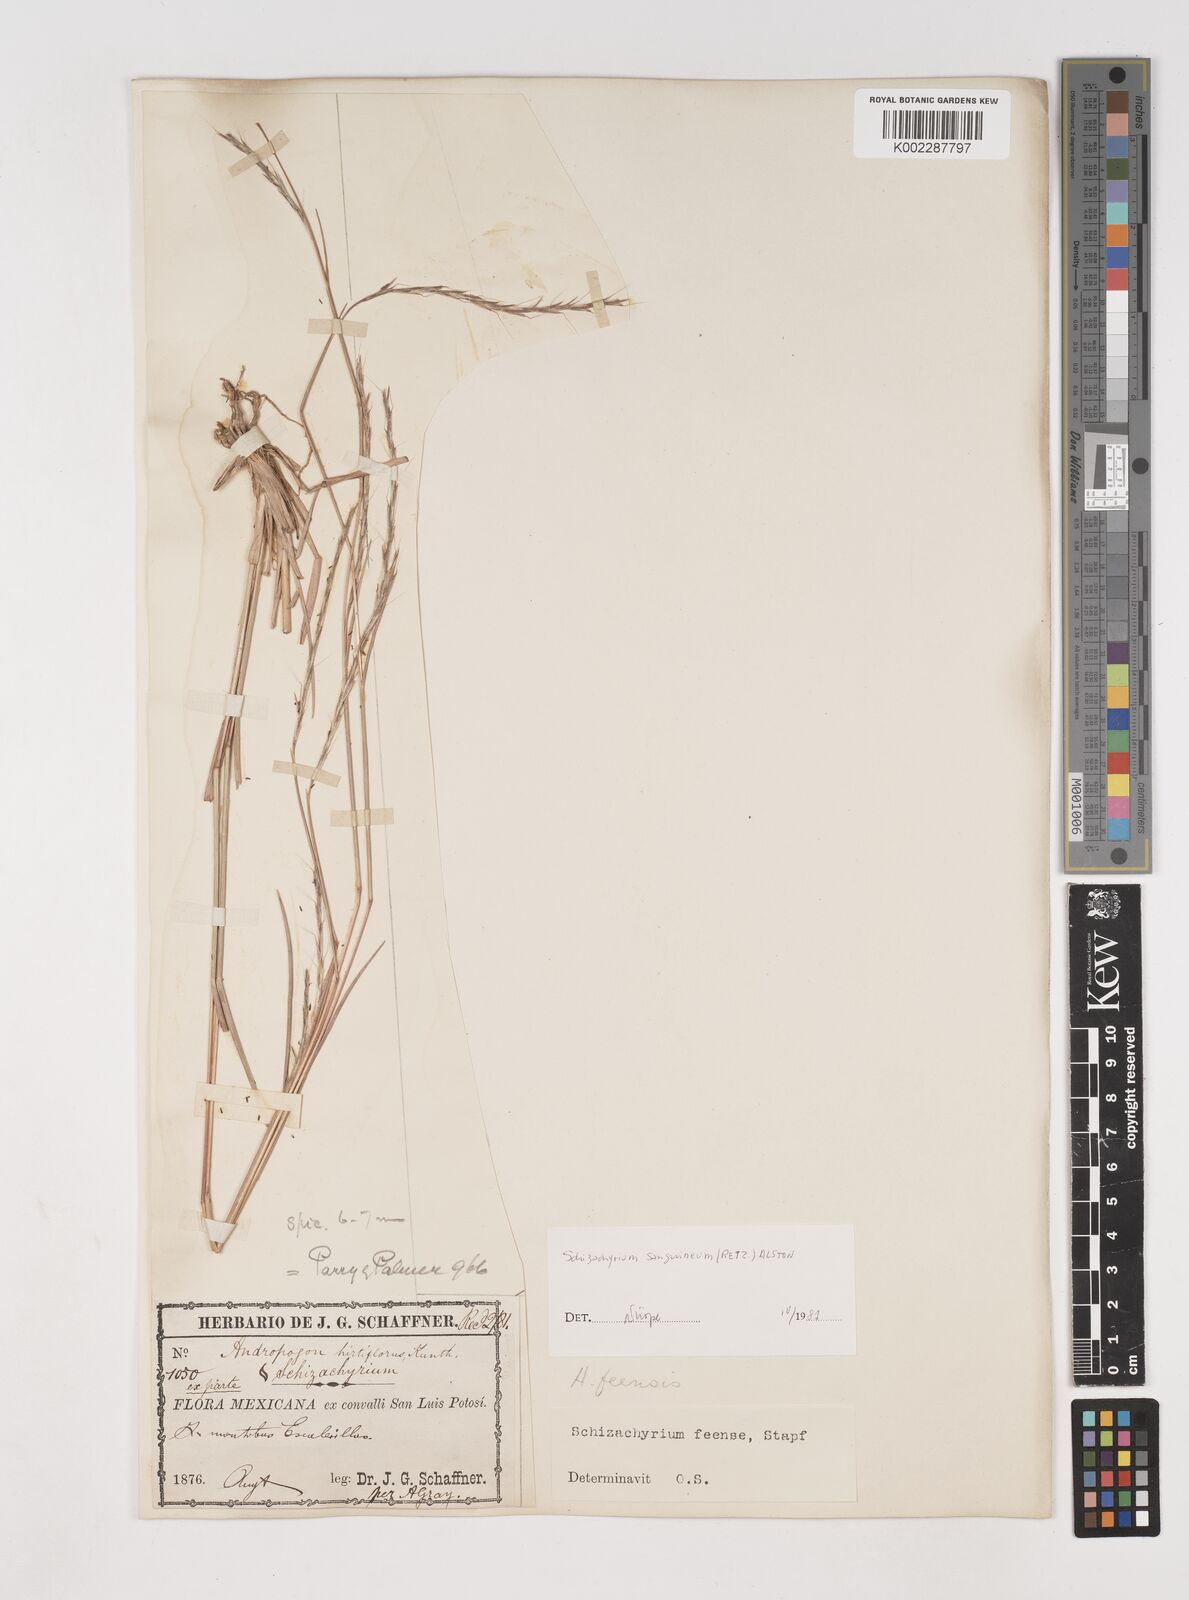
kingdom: Plantae
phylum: Tracheophyta
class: Liliopsida
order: Poales
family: Poaceae
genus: Schizachyrium
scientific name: Schizachyrium sanguineum
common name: Crimson bluestem
